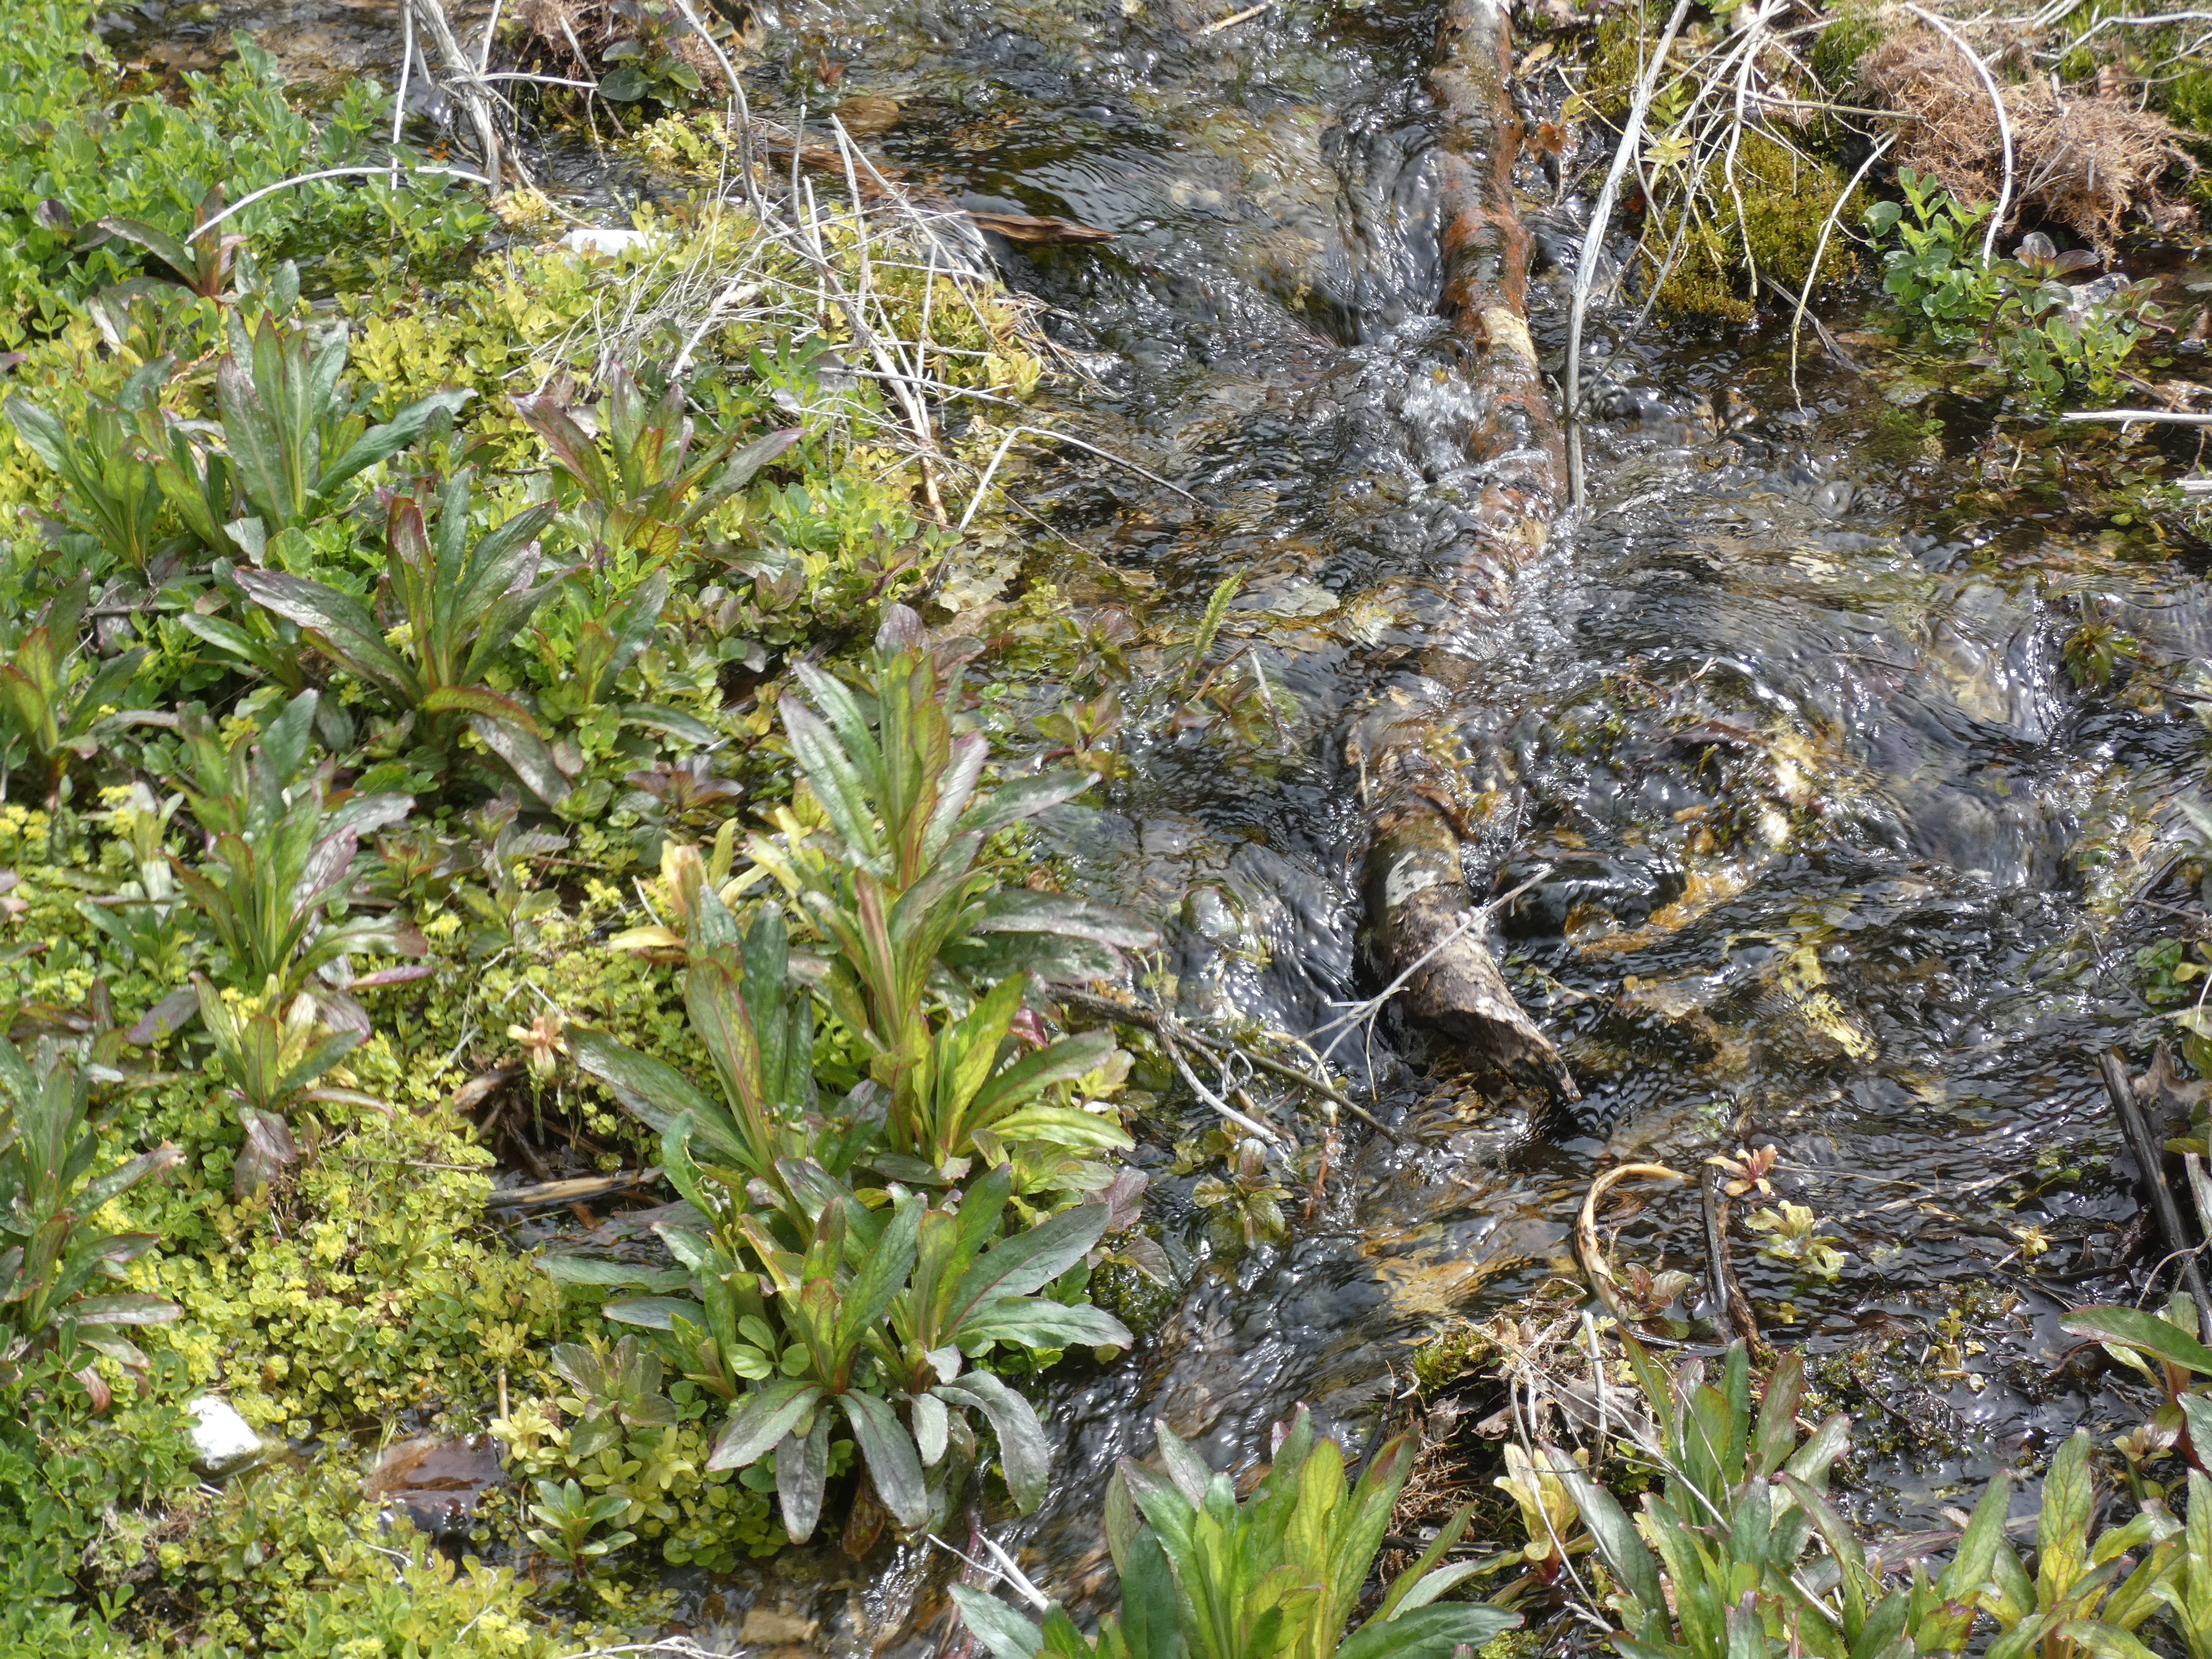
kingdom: Plantae
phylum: Tracheophyta
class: Polypodiopsida
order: Equisetales
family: Equisetaceae
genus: Equisetum
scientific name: Equisetum arvense
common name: Ager-padderok
